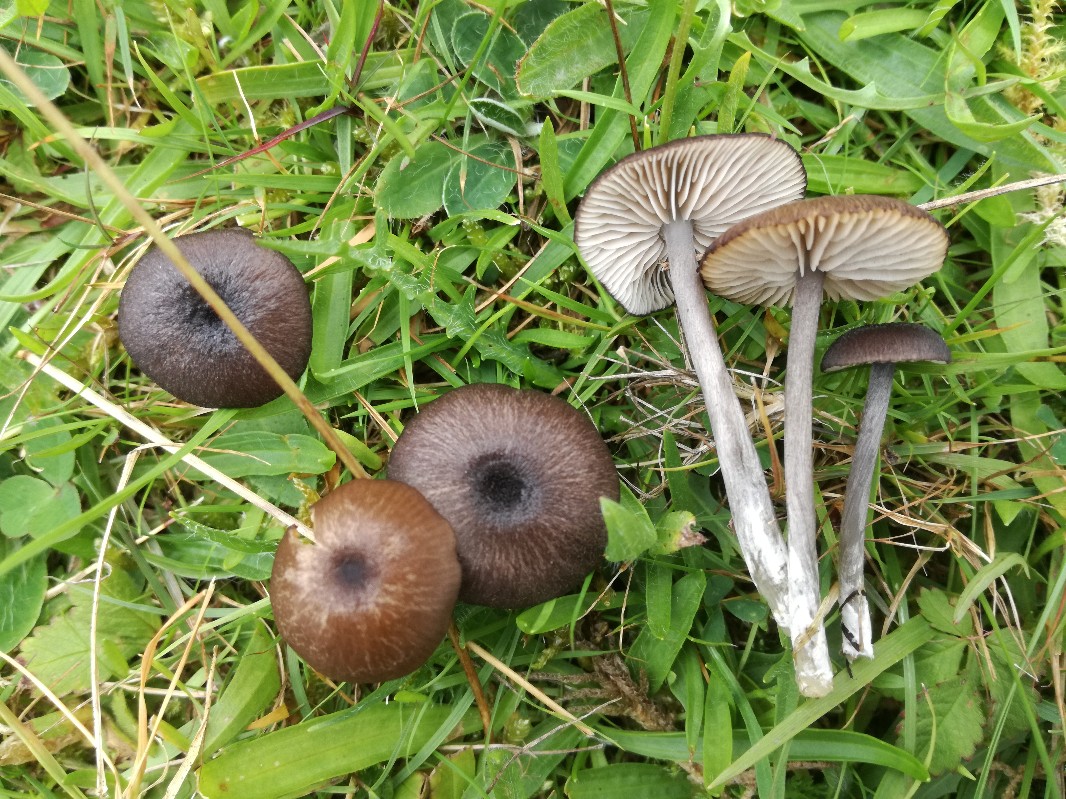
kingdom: Fungi
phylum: Basidiomycota
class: Agaricomycetes
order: Agaricales
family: Entolomataceae
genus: Entoloma
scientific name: Entoloma porphyrogriseum
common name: porfyrgrå rødblad
